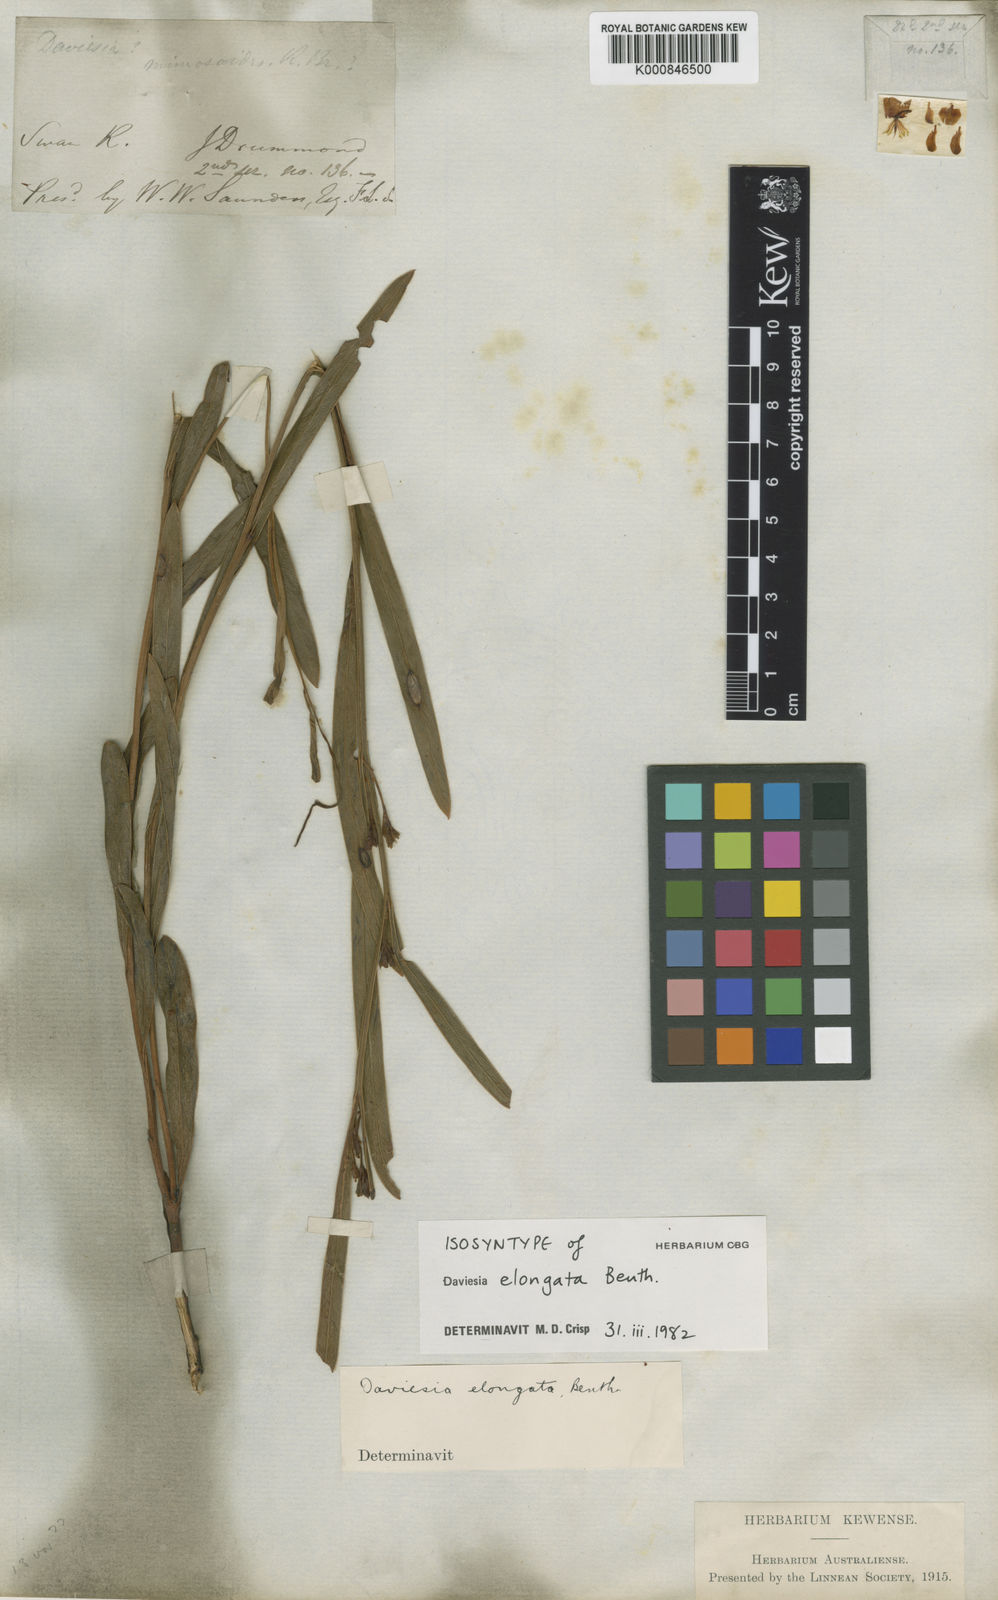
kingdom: Plantae
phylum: Tracheophyta
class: Magnoliopsida
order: Fabales
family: Fabaceae
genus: Daviesia
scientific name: Daviesia elongata
